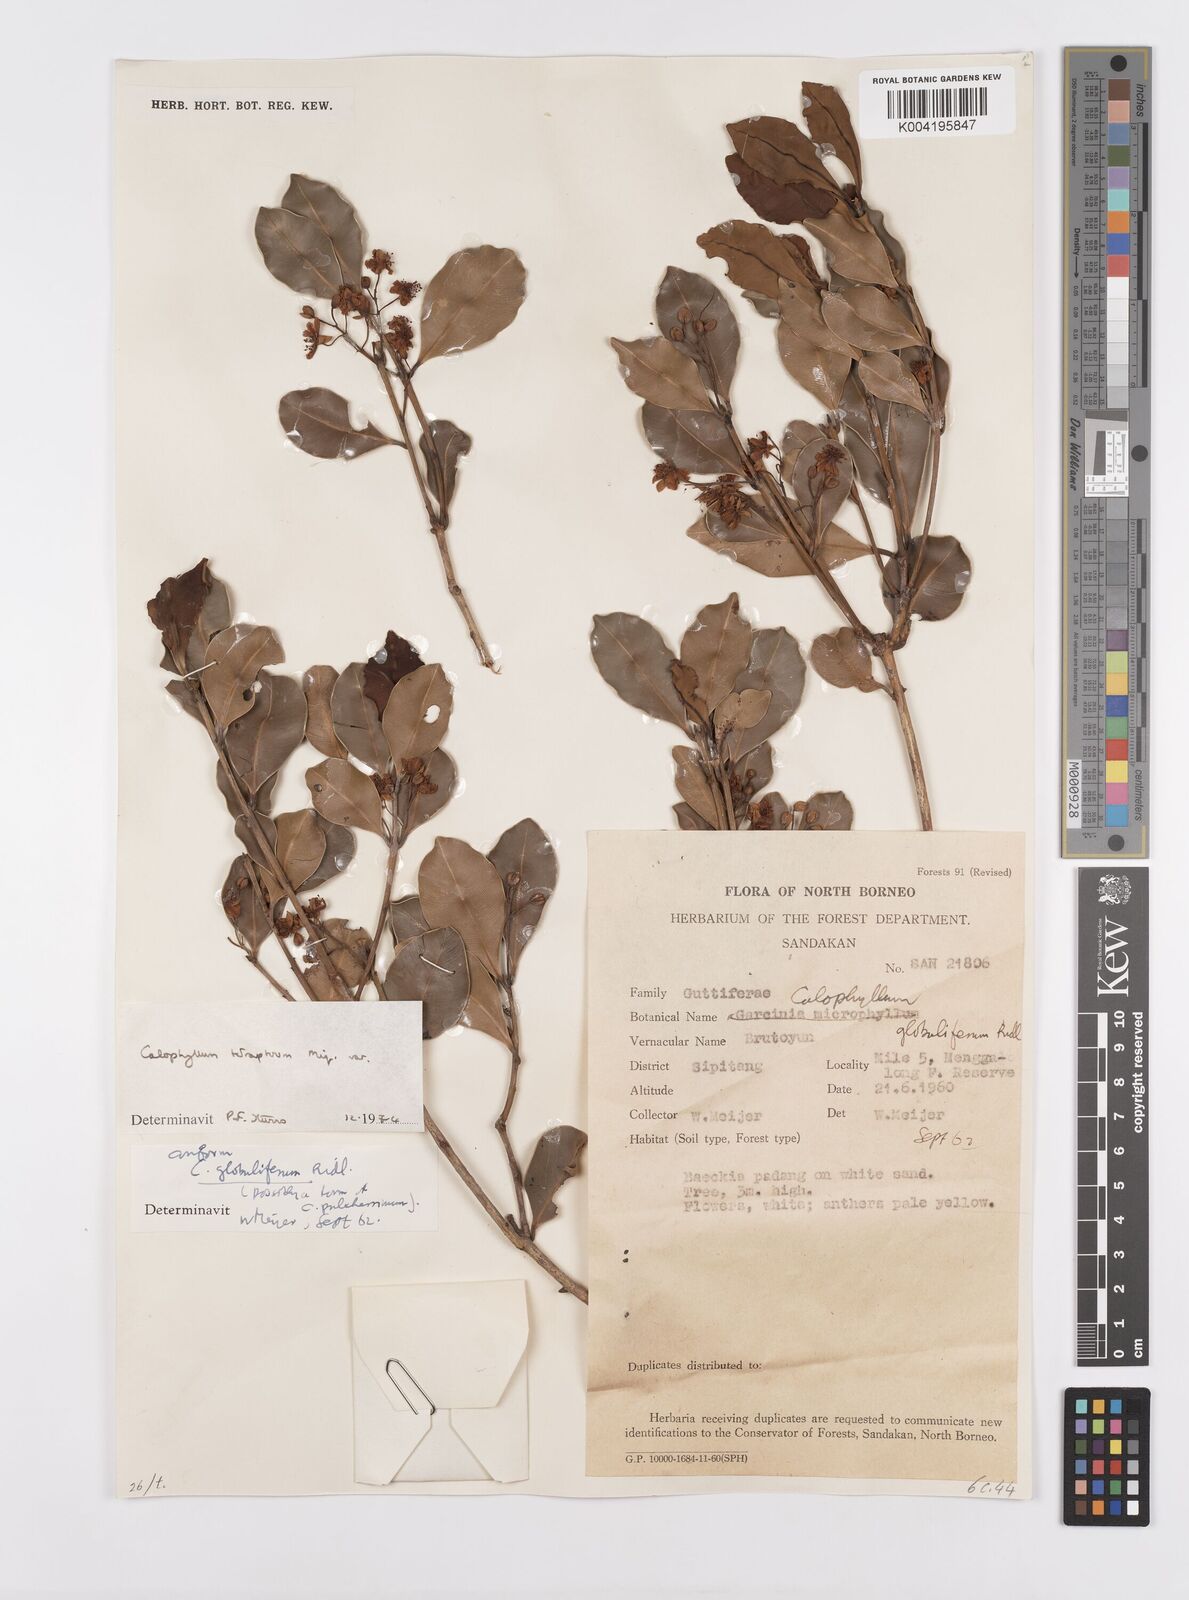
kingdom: Plantae
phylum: Tracheophyta
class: Magnoliopsida
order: Malpighiales
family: Calophyllaceae
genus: Calophyllum
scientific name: Calophyllum tetrapterum
